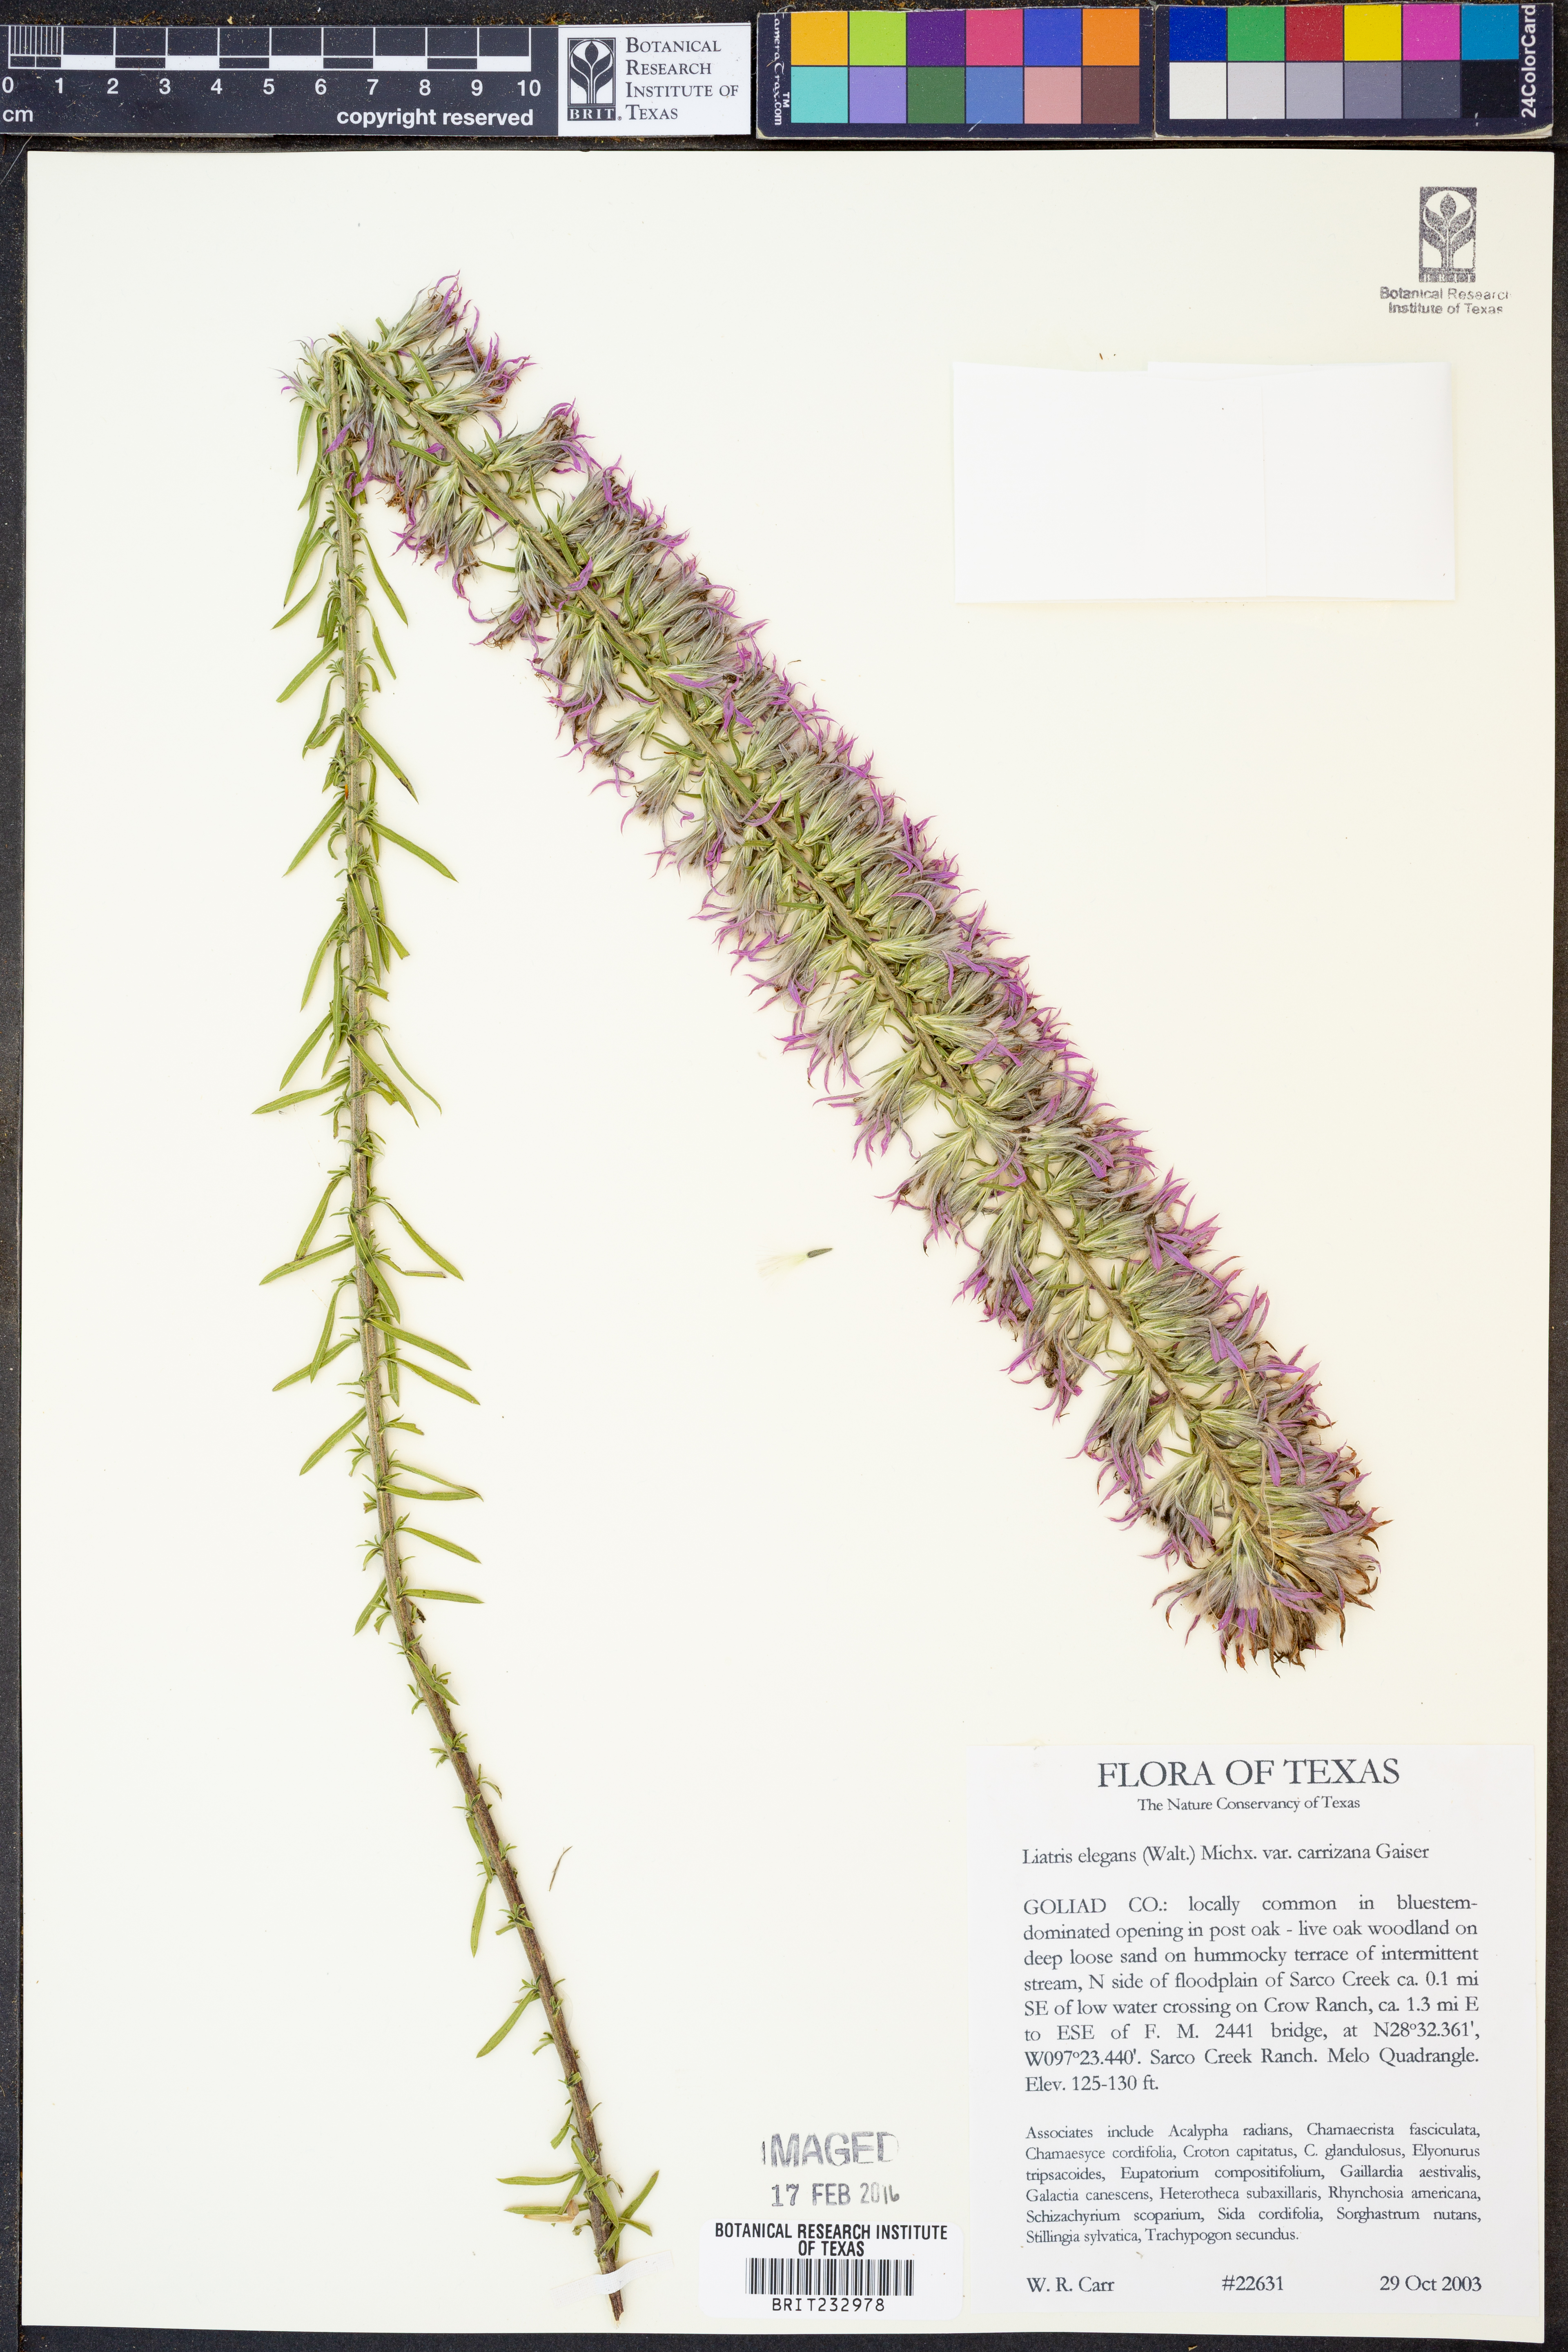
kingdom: Plantae
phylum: Tracheophyta
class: Magnoliopsida
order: Asterales
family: Asteraceae
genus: Liatris
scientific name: Liatris carizzana
